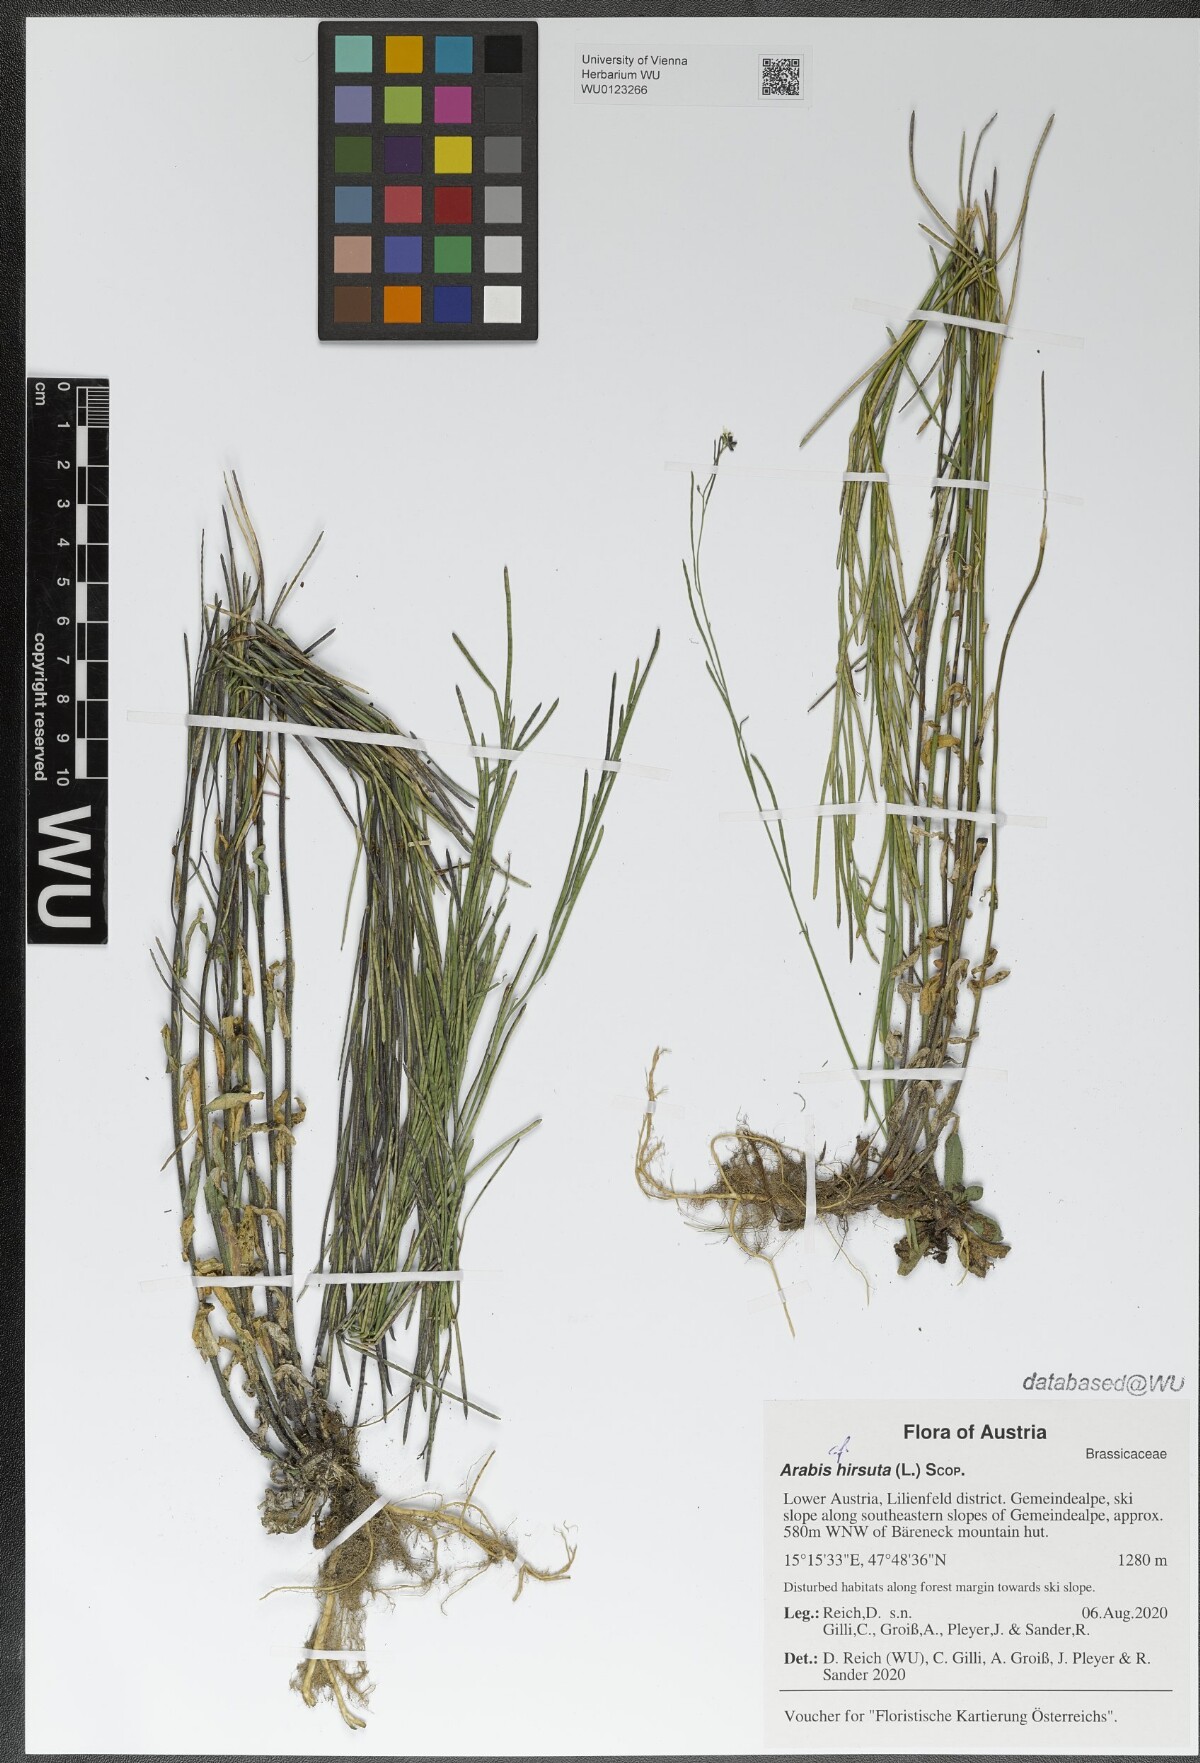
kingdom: Plantae
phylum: Tracheophyta
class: Magnoliopsida
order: Brassicales
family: Brassicaceae
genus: Arabis
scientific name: Arabis hirsuta
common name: Hairy rock-cress
